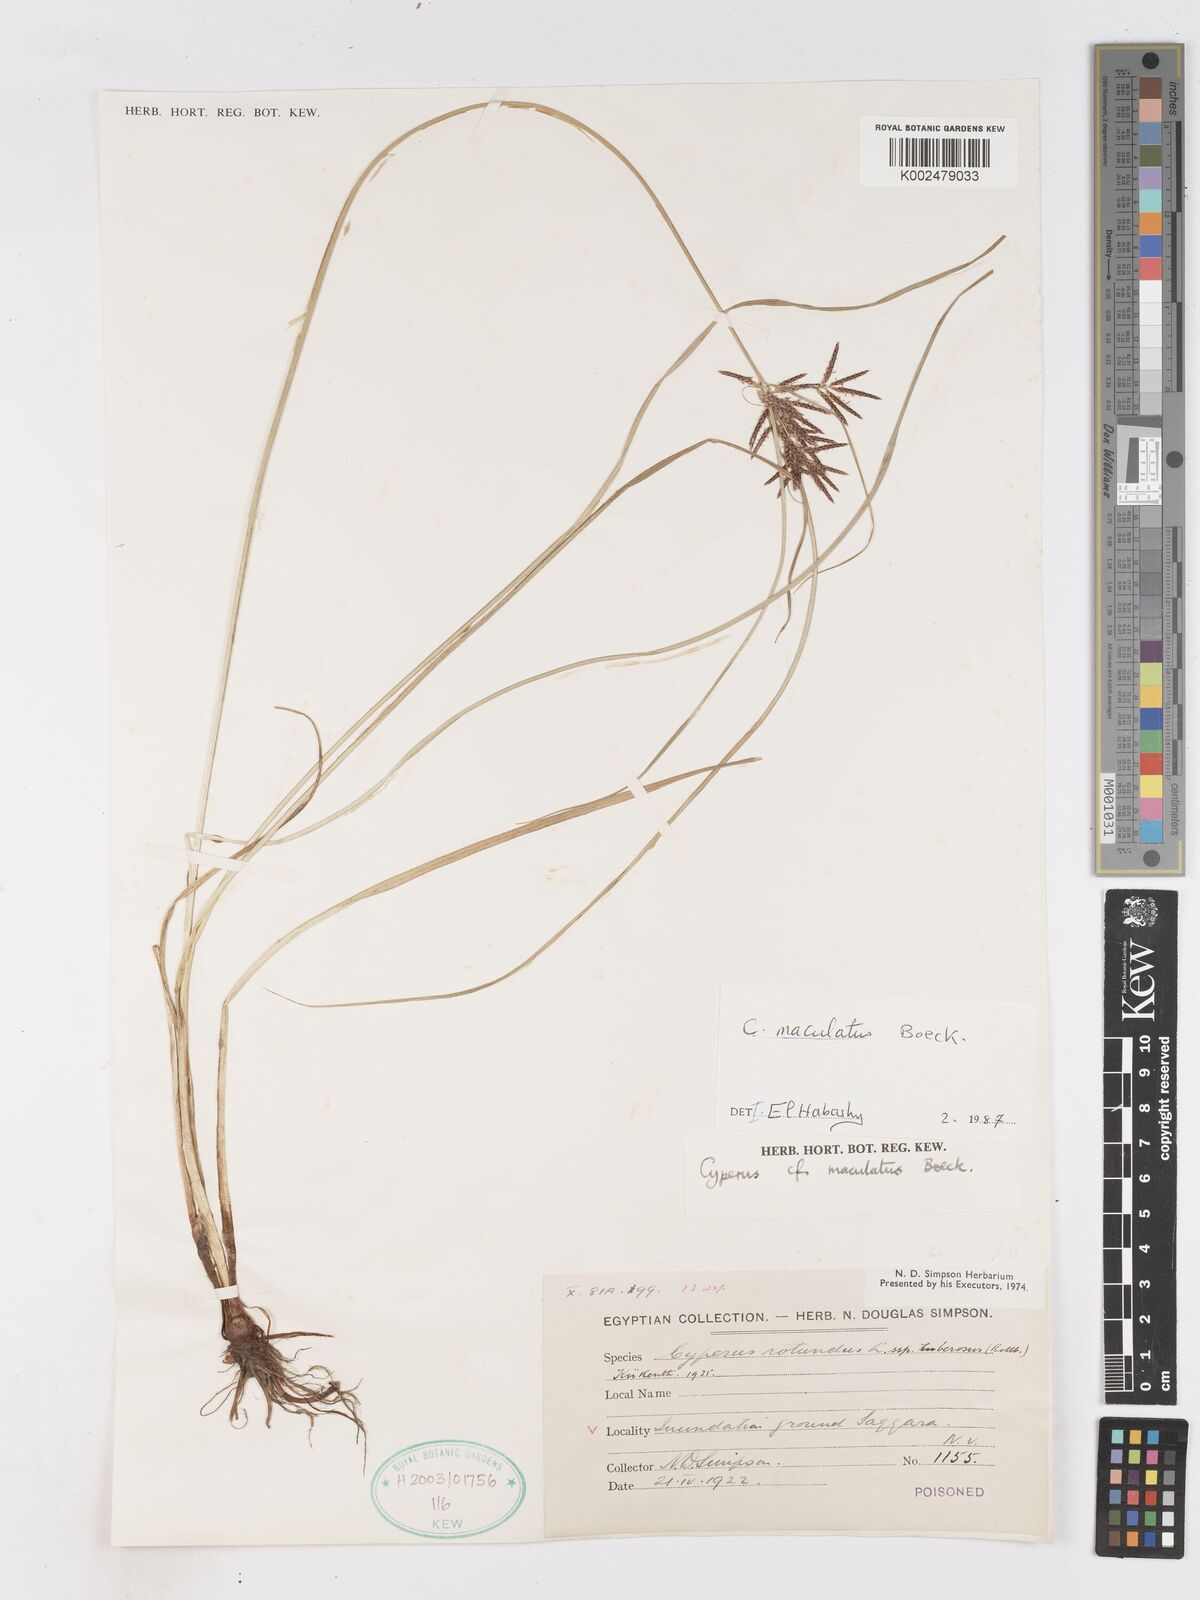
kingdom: Plantae
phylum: Tracheophyta
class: Liliopsida
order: Poales
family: Cyperaceae
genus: Cyperus
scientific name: Cyperus maculatus
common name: Maculated sedge
